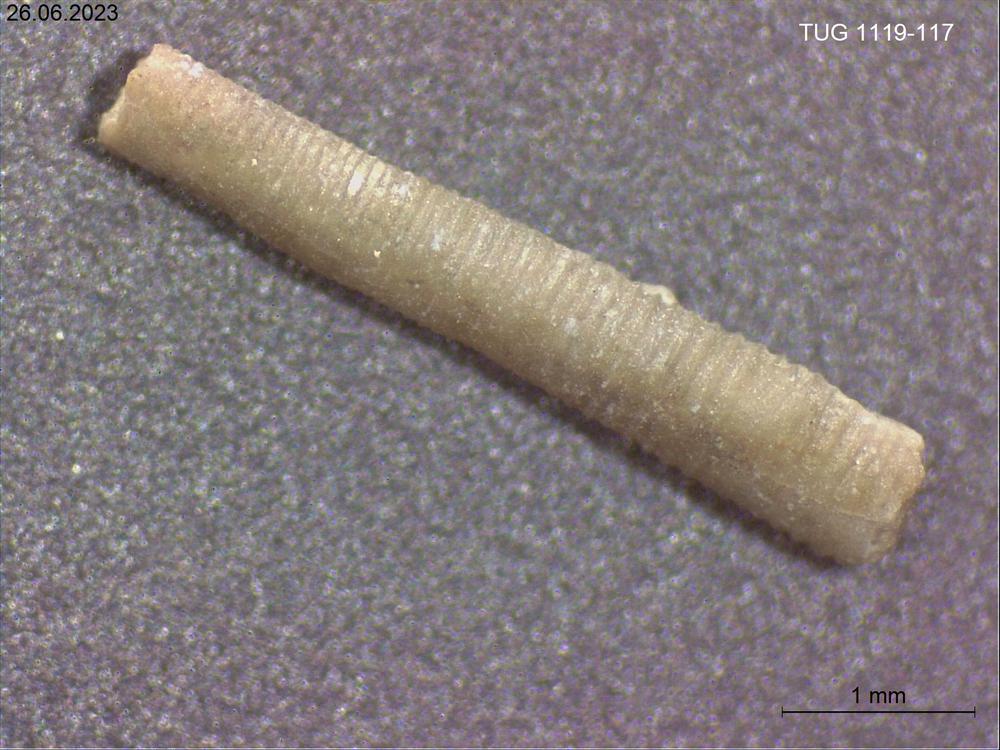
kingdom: Animalia
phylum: Mollusca
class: Cricoconarida
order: Tentaculitida
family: Tentaculitidae
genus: Tentaculites
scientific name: Tentaculites
